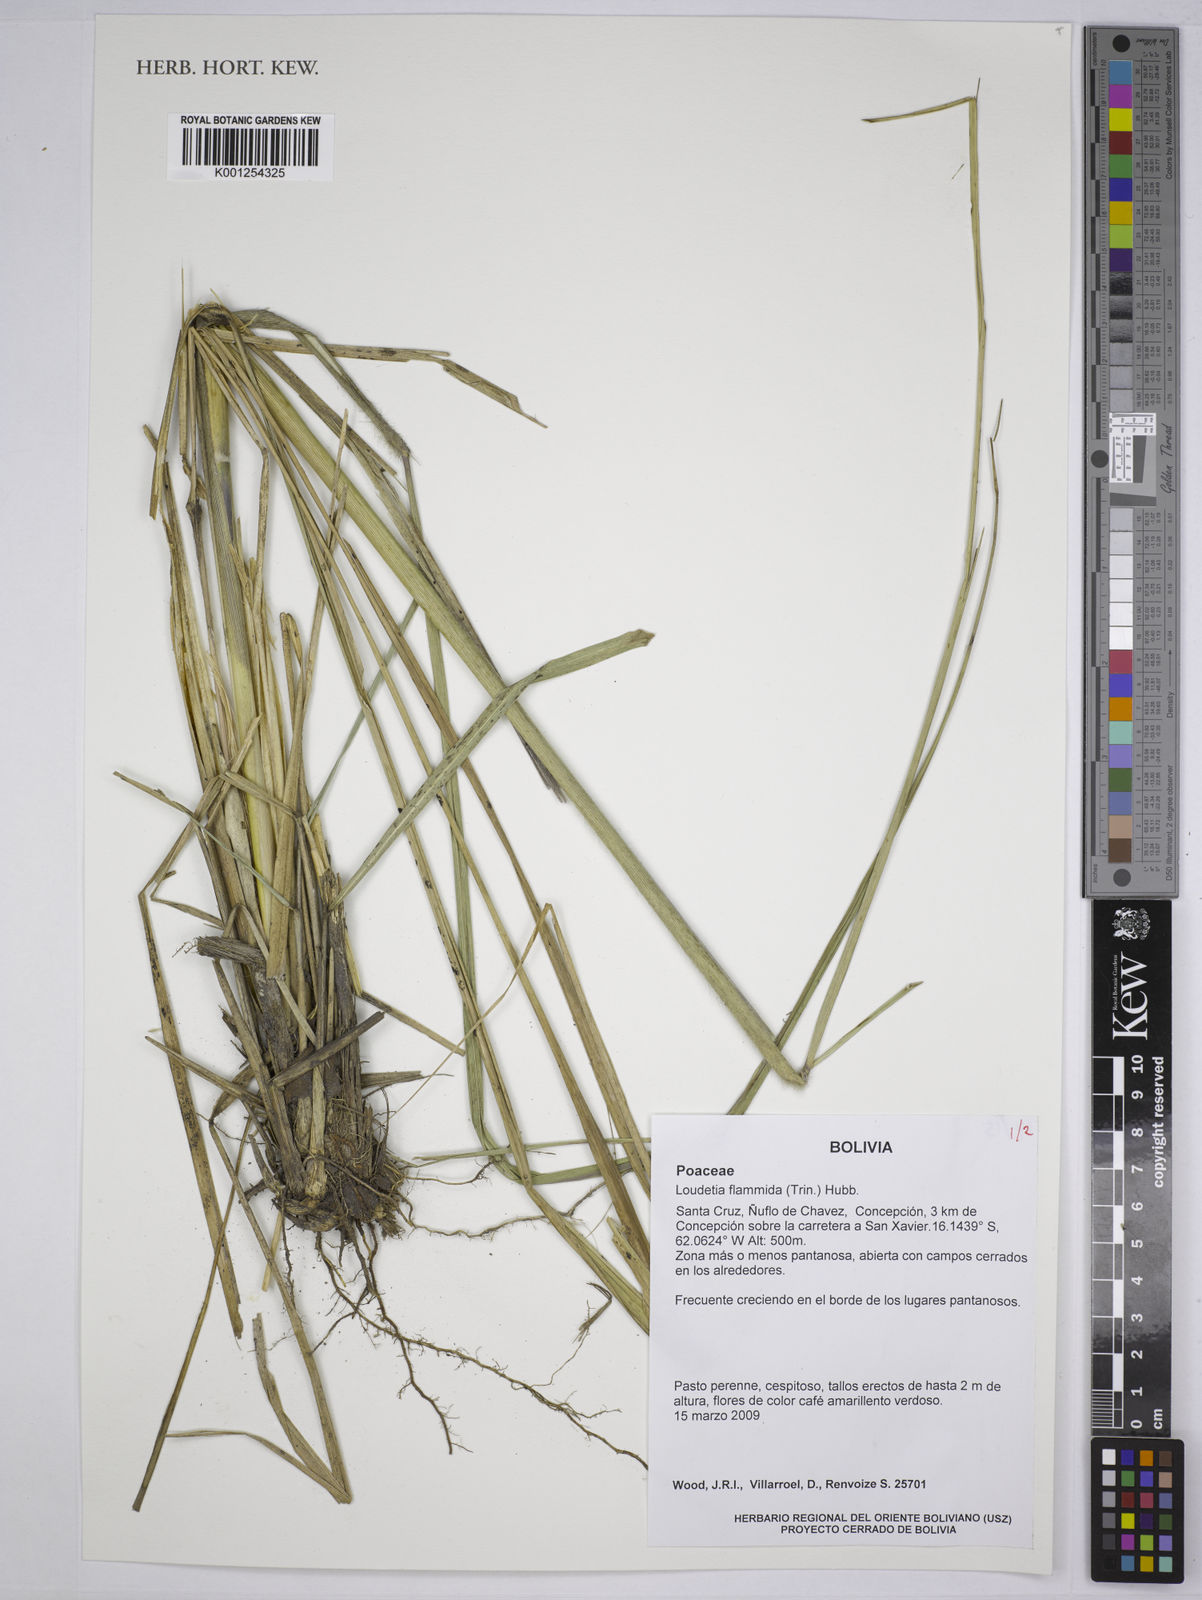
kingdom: Plantae
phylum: Tracheophyta
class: Liliopsida
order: Poales
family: Poaceae
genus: Loudetia
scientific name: Loudetia flammida
